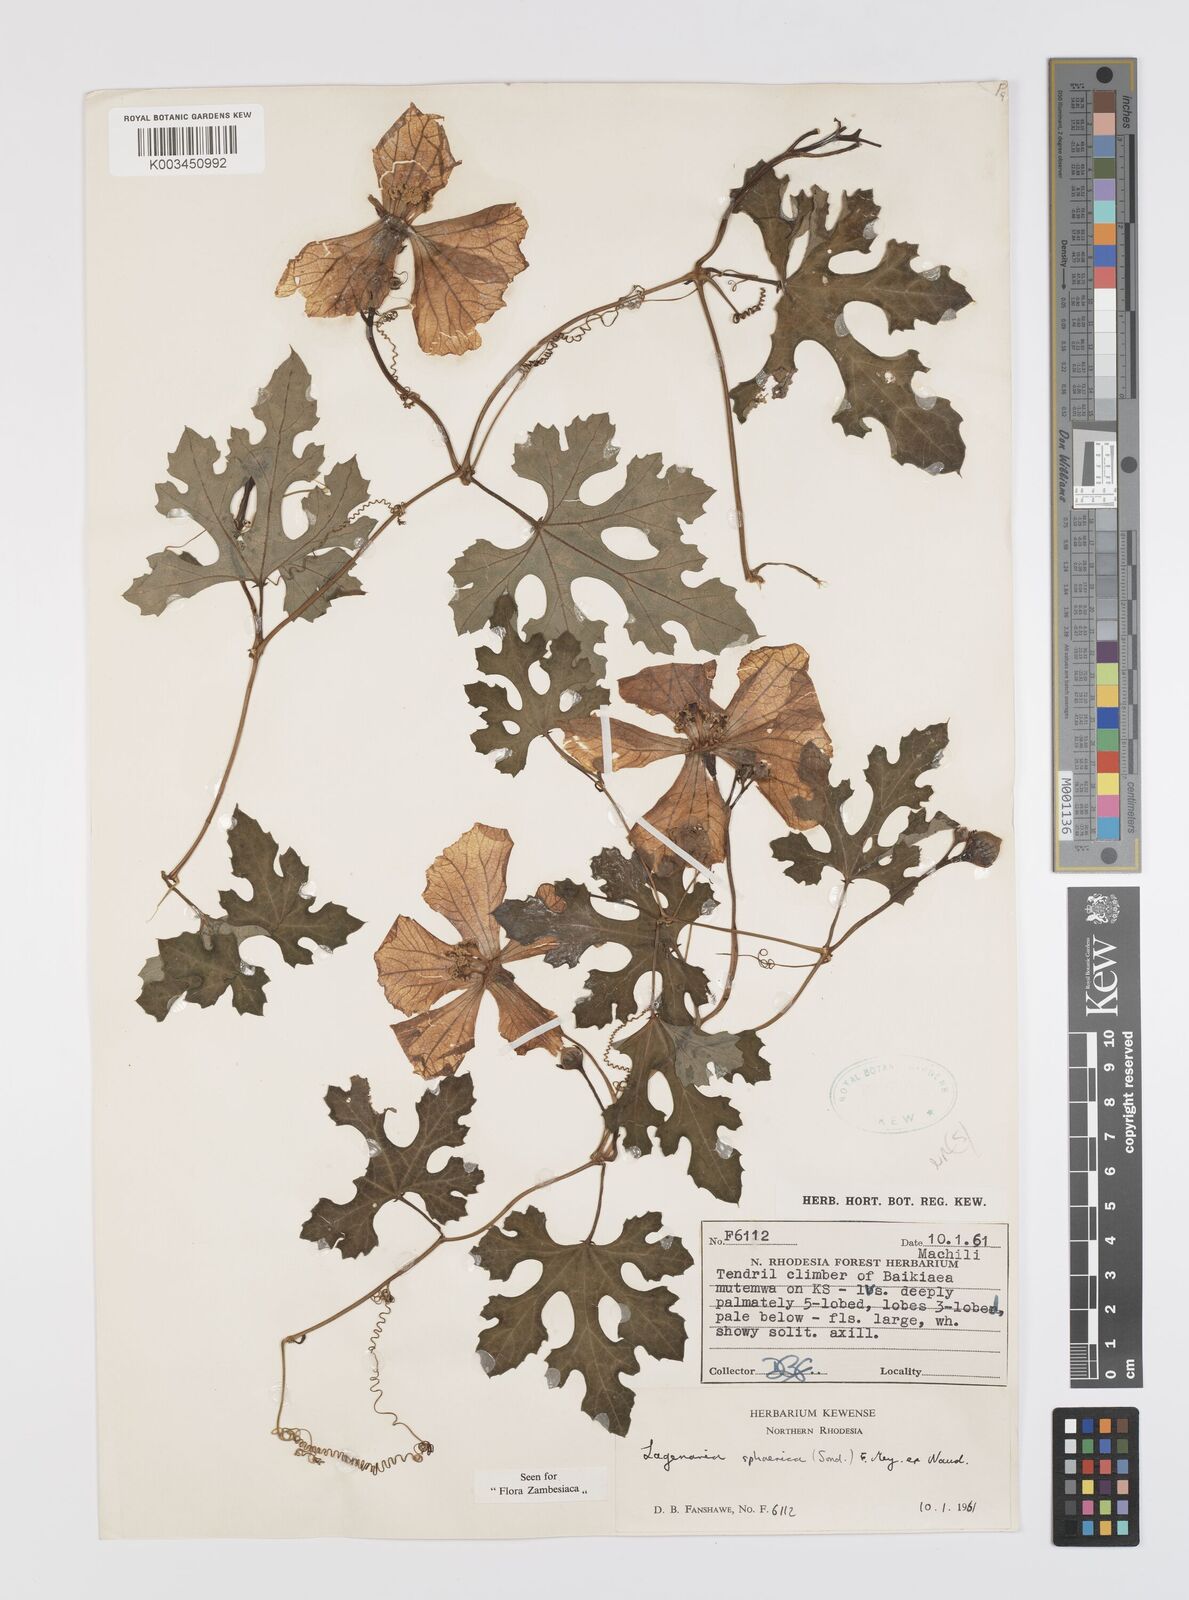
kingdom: Plantae
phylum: Tracheophyta
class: Magnoliopsida
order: Cucurbitales
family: Cucurbitaceae
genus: Lagenaria
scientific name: Lagenaria sphaerica
